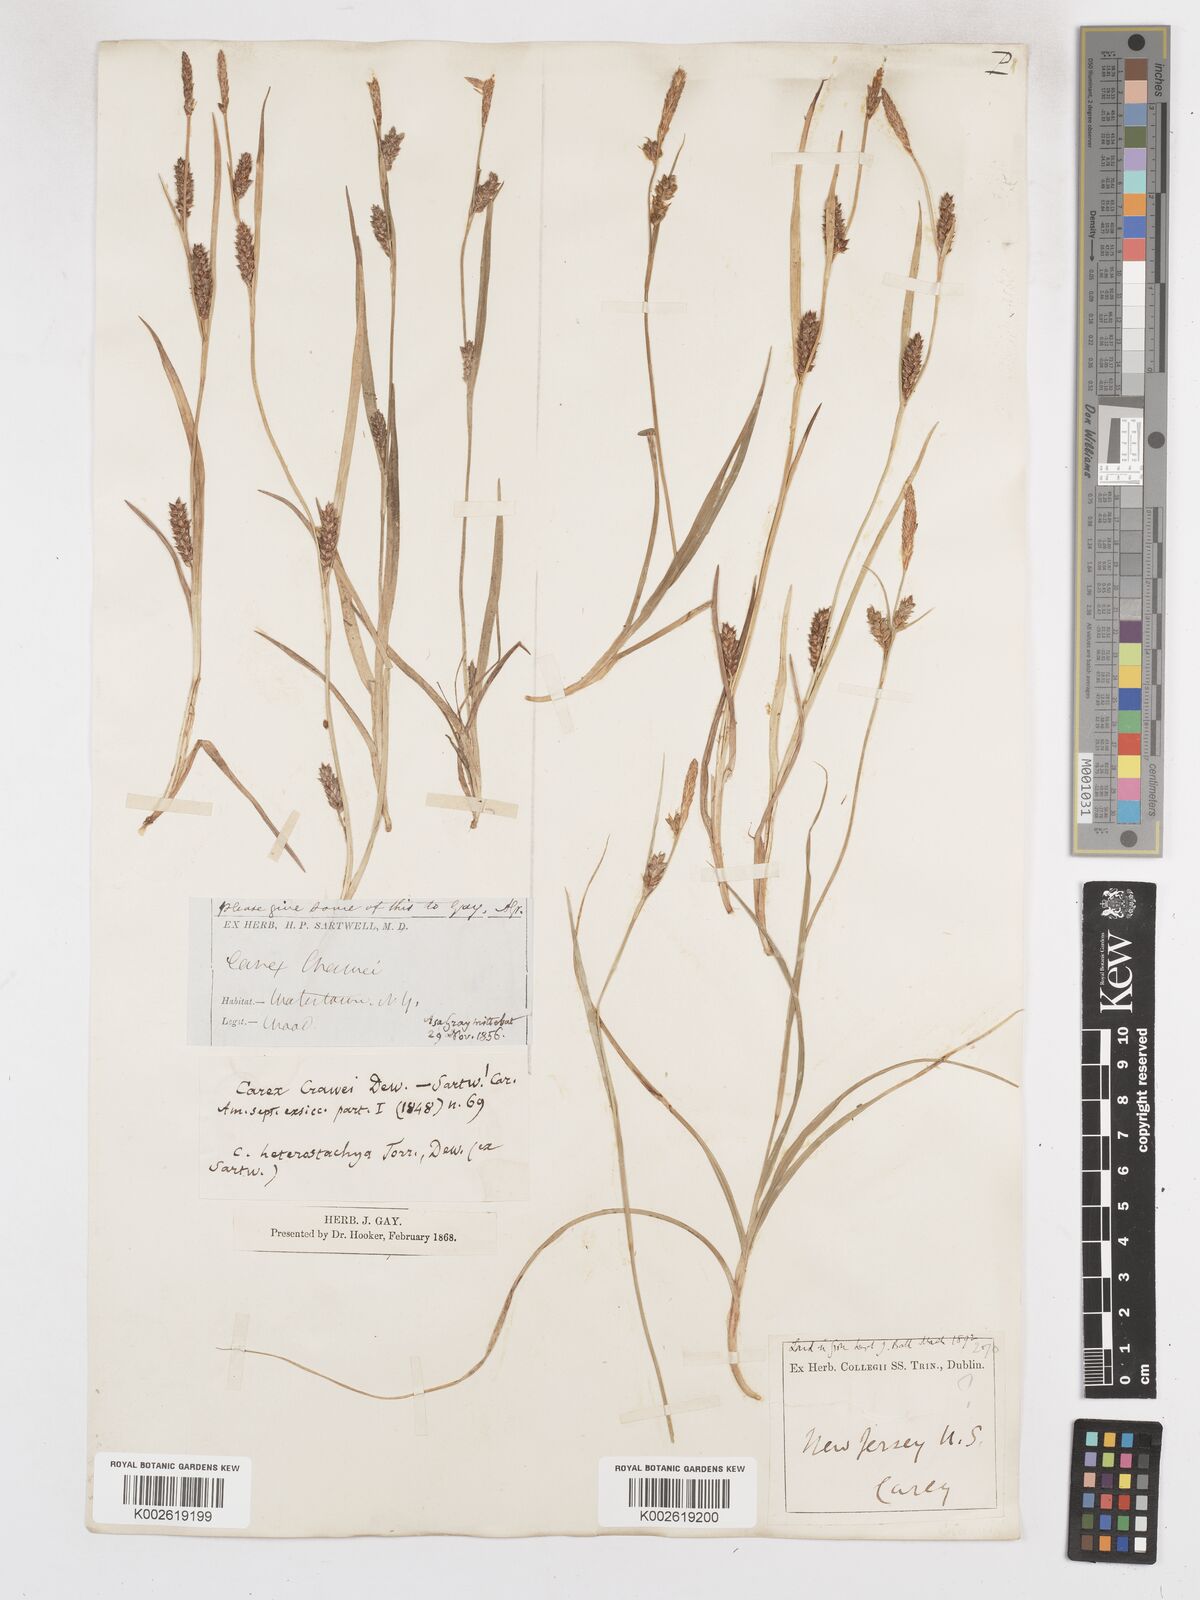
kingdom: Plantae
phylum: Tracheophyta
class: Liliopsida
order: Poales
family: Cyperaceae
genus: Carex
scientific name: Carex microdonta
